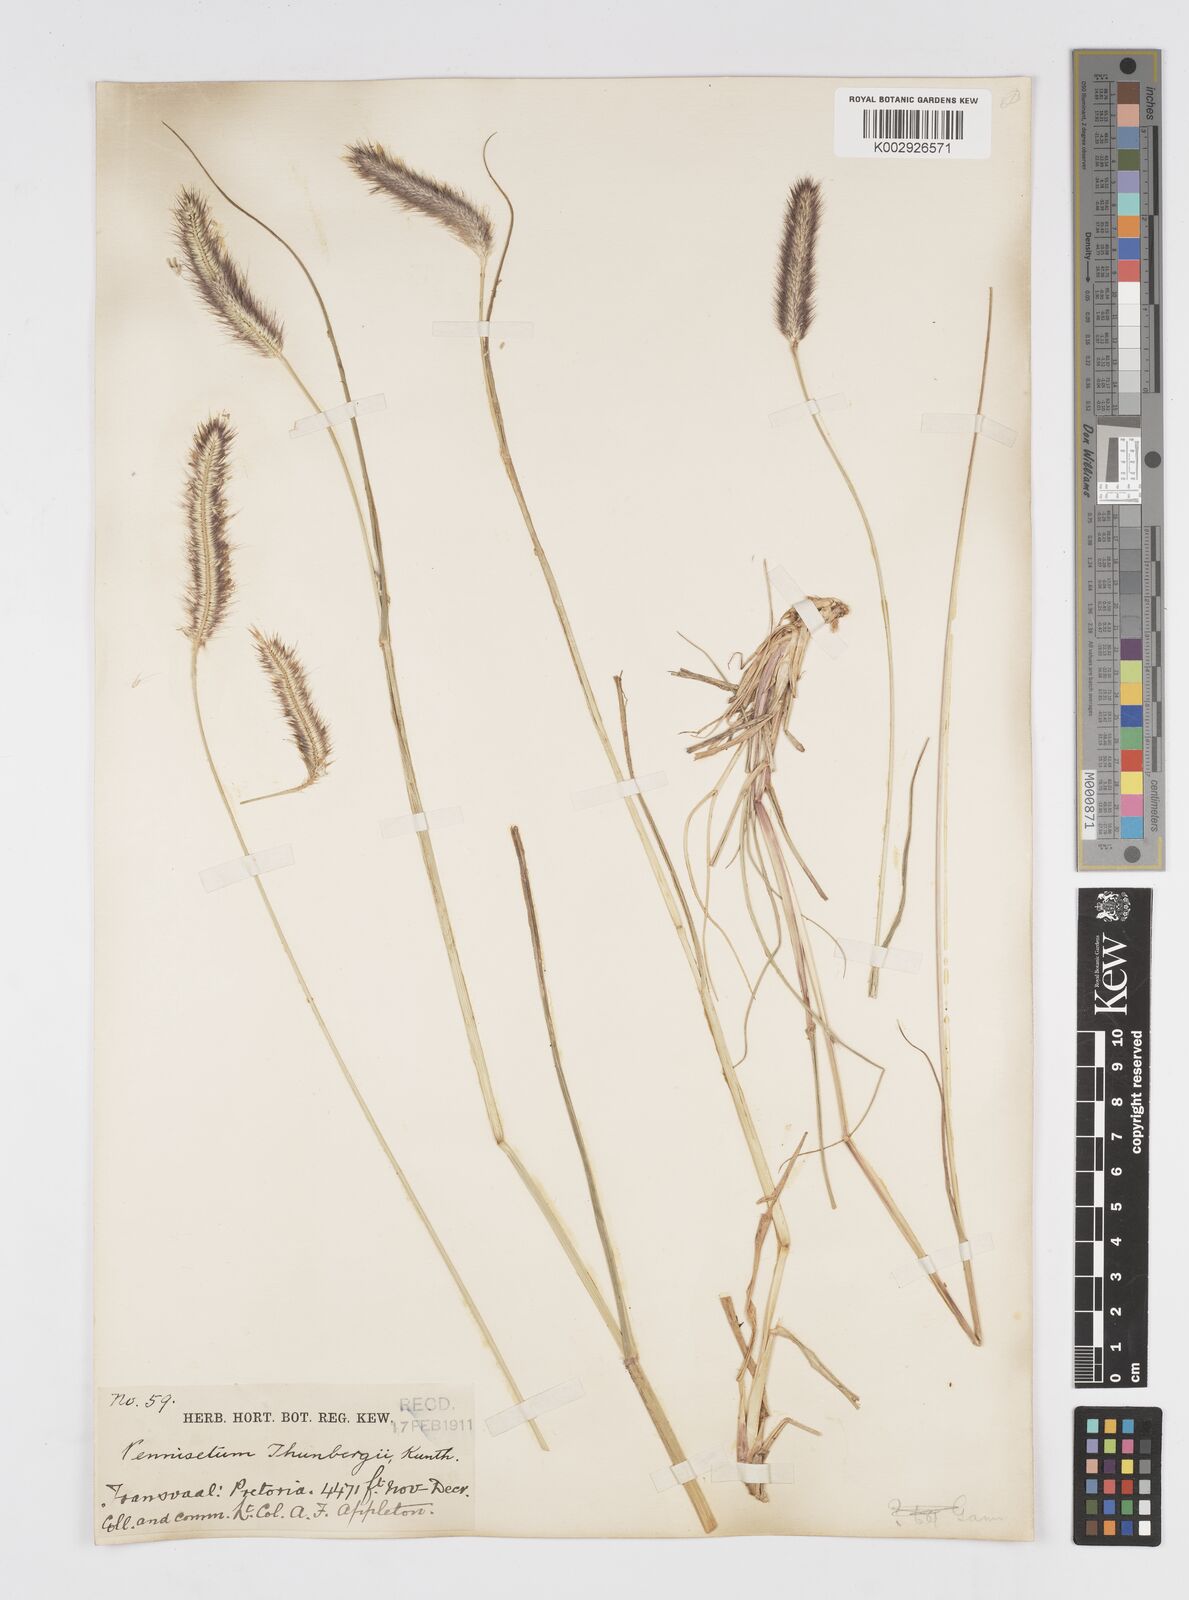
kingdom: Plantae
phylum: Tracheophyta
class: Liliopsida
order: Poales
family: Poaceae
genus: Cenchrus
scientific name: Cenchrus geniculatus
